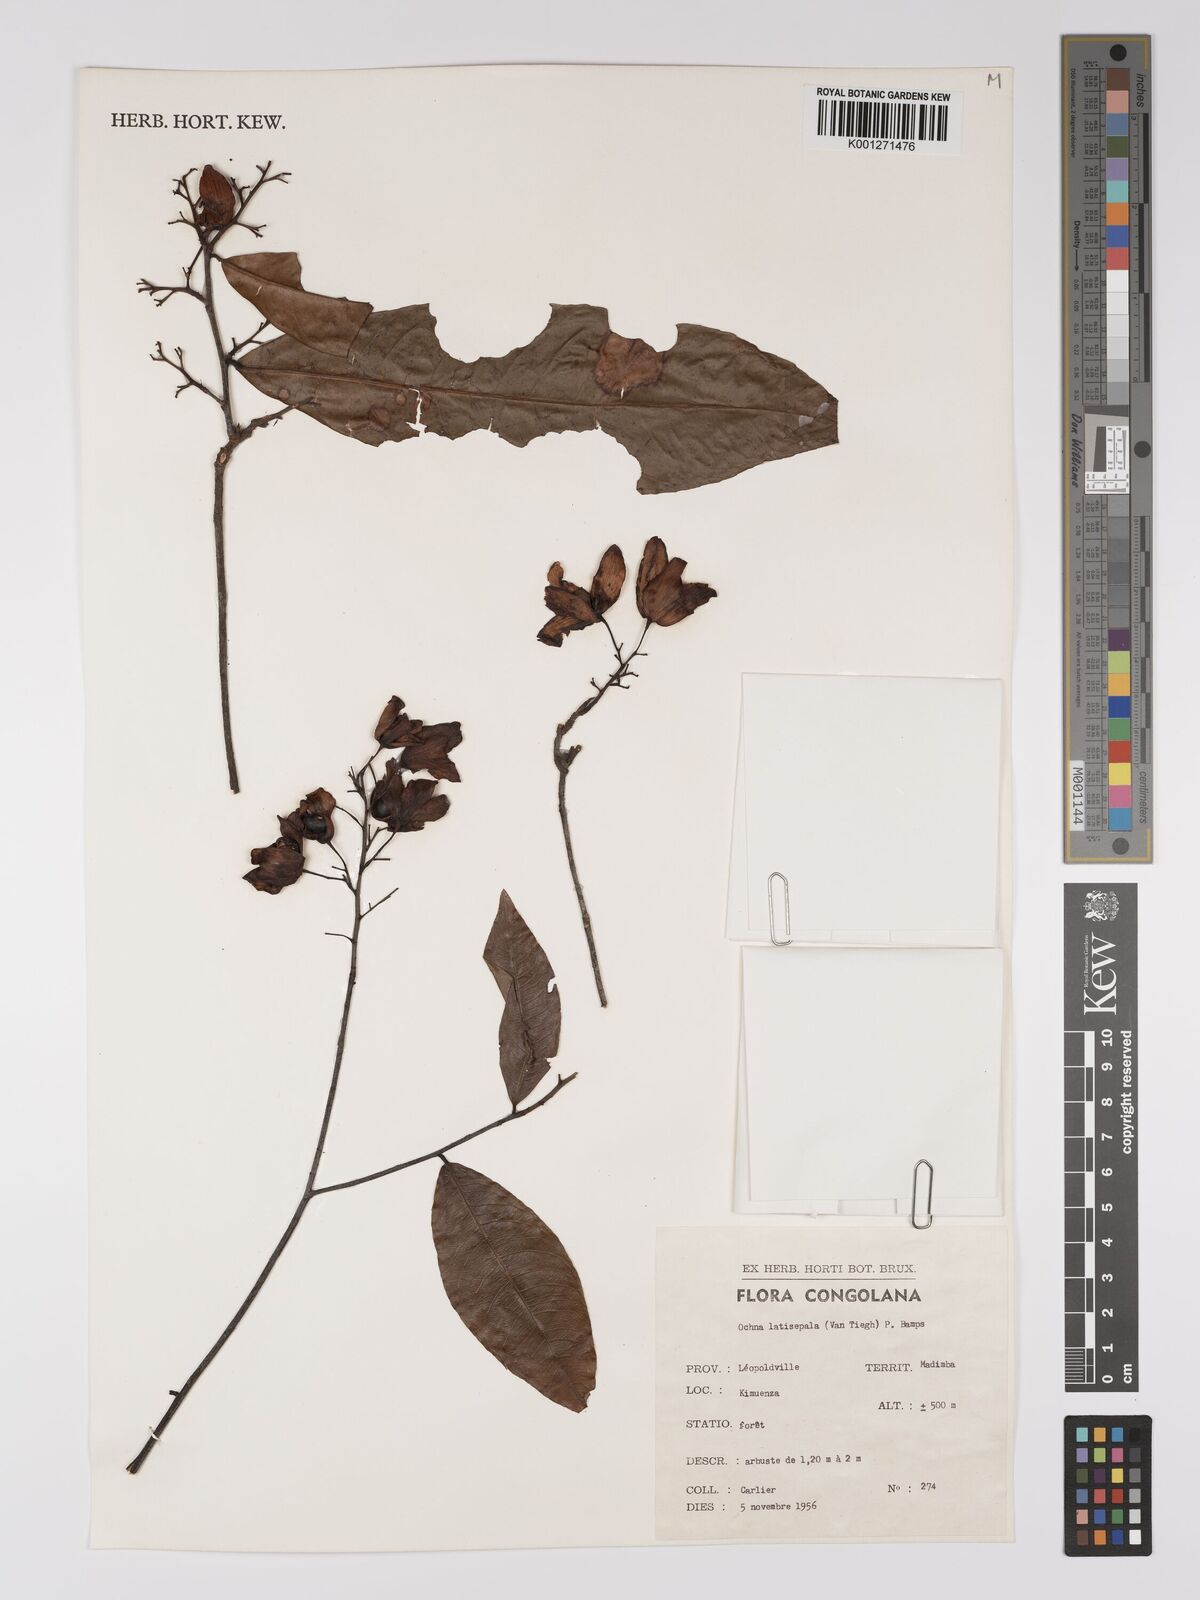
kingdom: Plantae
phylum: Tracheophyta
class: Magnoliopsida
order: Malpighiales
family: Ochnaceae
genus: Ochna
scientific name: Ochna latisepala
